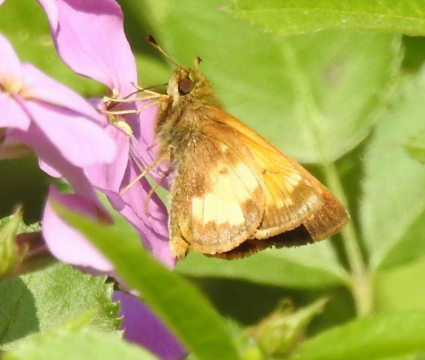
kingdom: Animalia
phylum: Arthropoda
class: Insecta
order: Lepidoptera
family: Hesperiidae
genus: Lon
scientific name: Lon hobomok
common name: Hobomok Skipper
